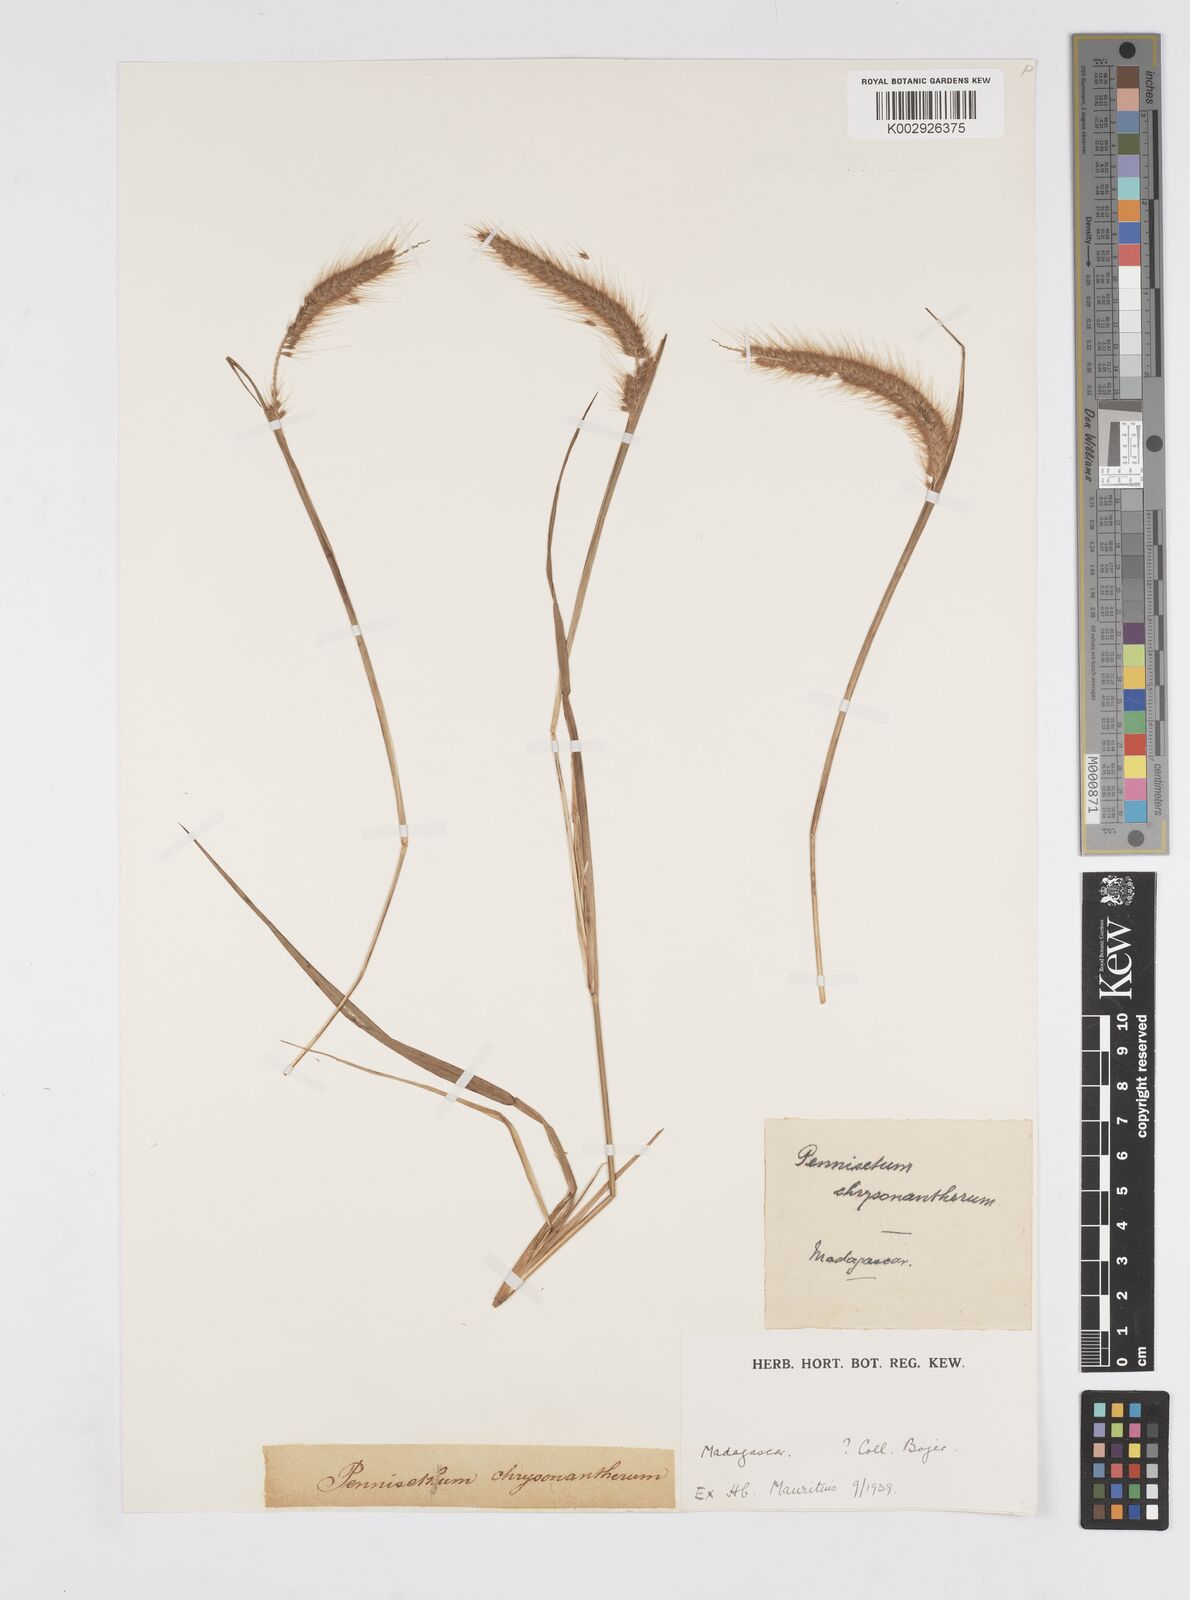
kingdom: Plantae
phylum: Tracheophyta
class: Liliopsida
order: Poales
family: Poaceae
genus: Setaria
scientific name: Setaria parviflora
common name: Knotroot bristle-grass
